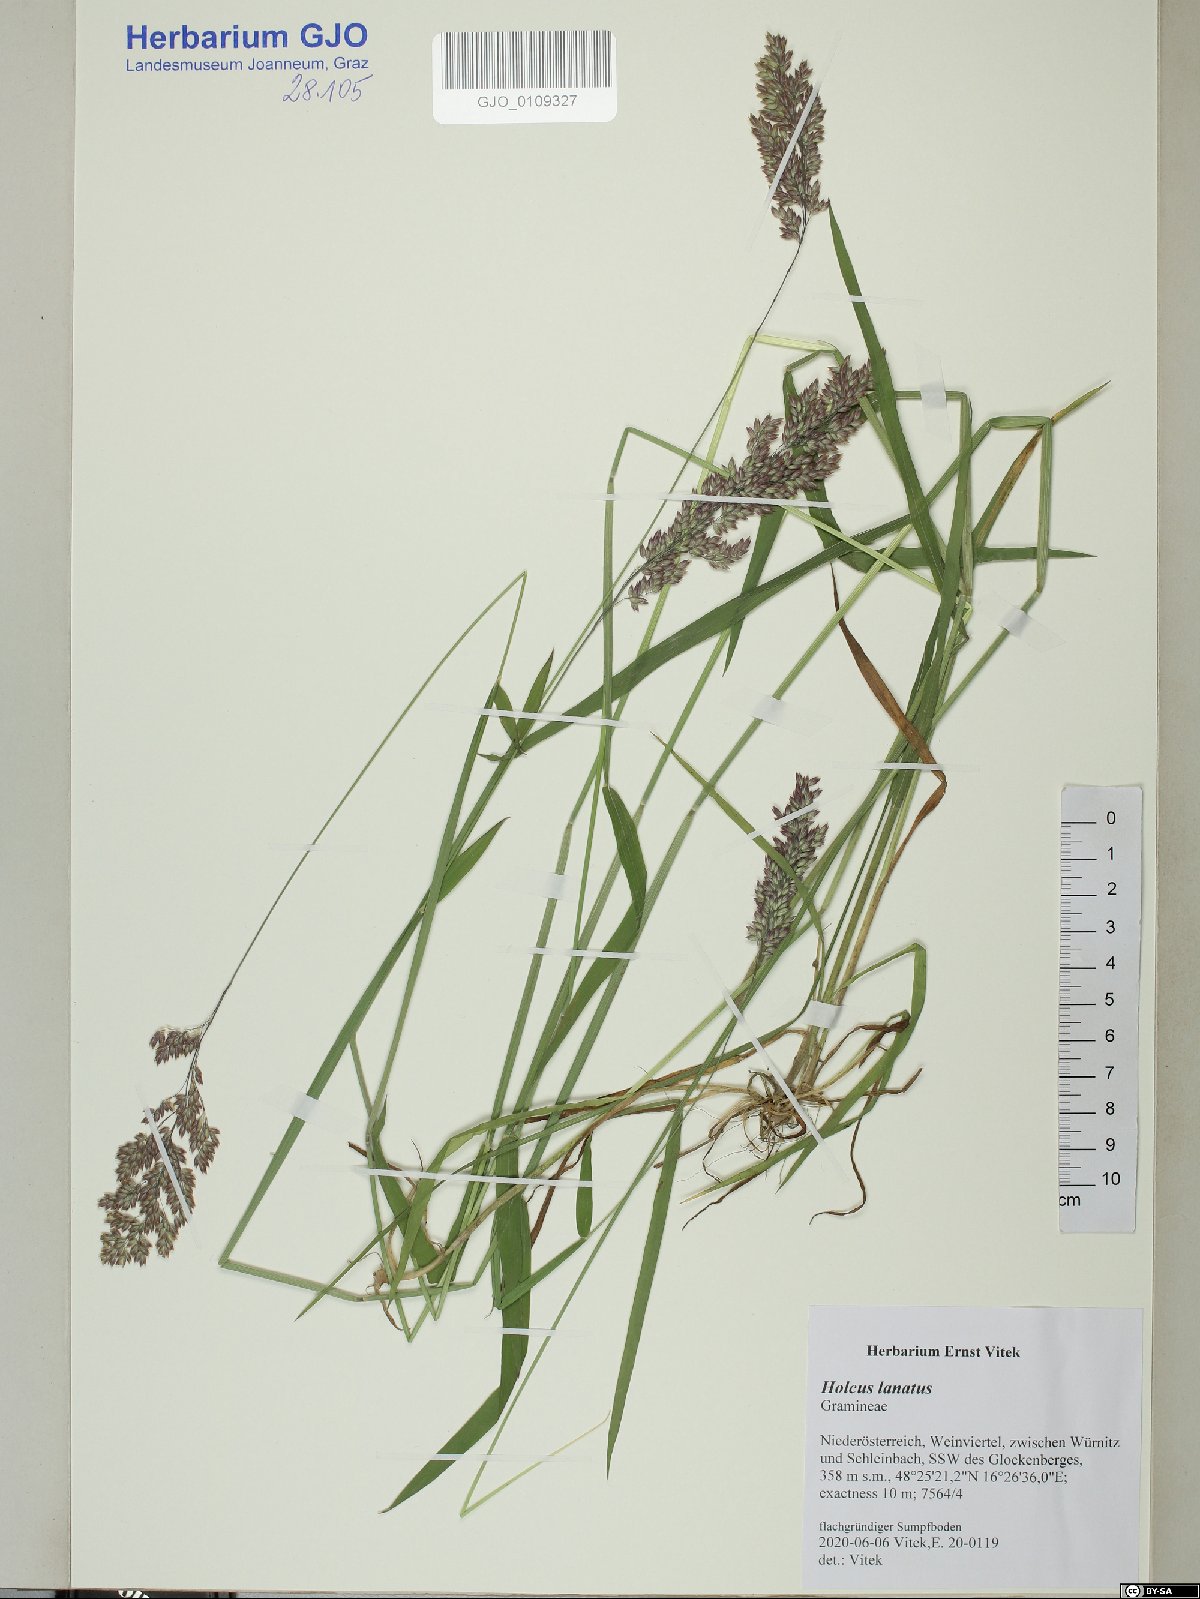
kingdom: Plantae
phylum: Tracheophyta
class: Liliopsida
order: Poales
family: Poaceae
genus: Holcus
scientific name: Holcus lanatus
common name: Yorkshire-fog
